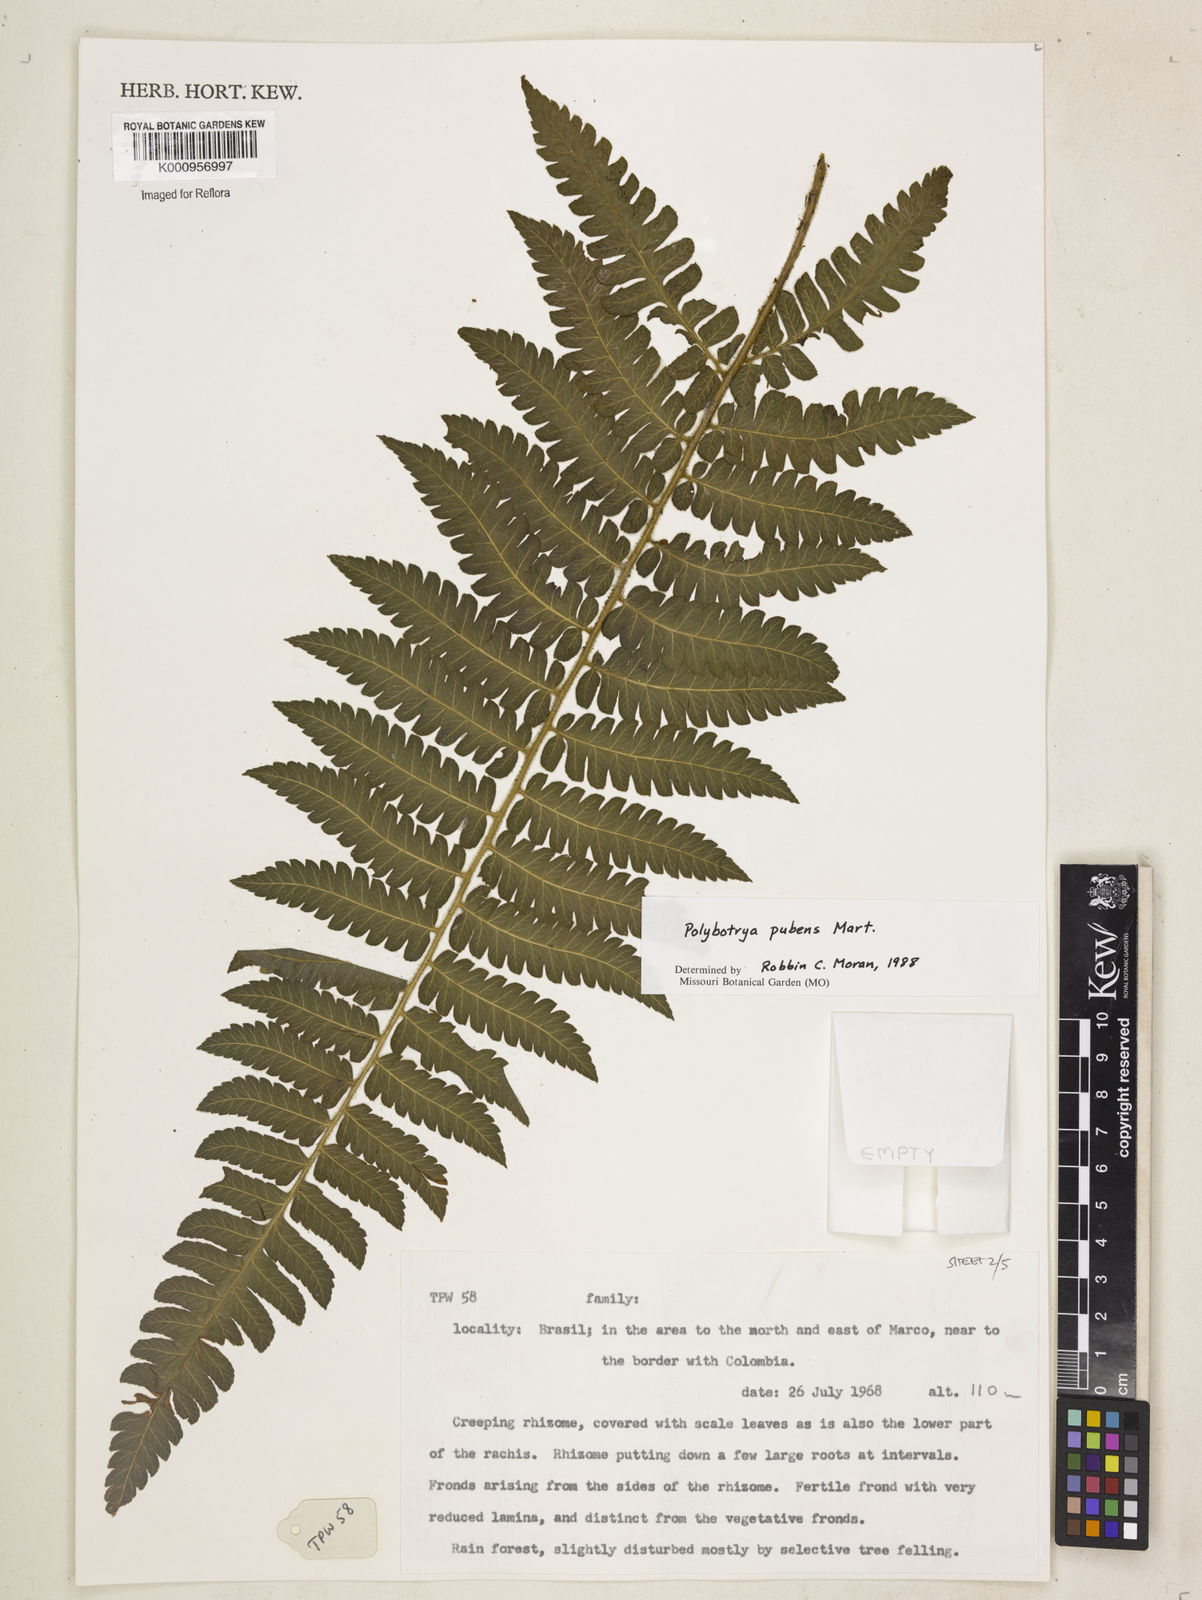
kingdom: Plantae
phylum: Tracheophyta
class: Polypodiopsida
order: Polypodiales
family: Dryopteridaceae
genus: Polybotrya
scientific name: Polybotrya pubens
